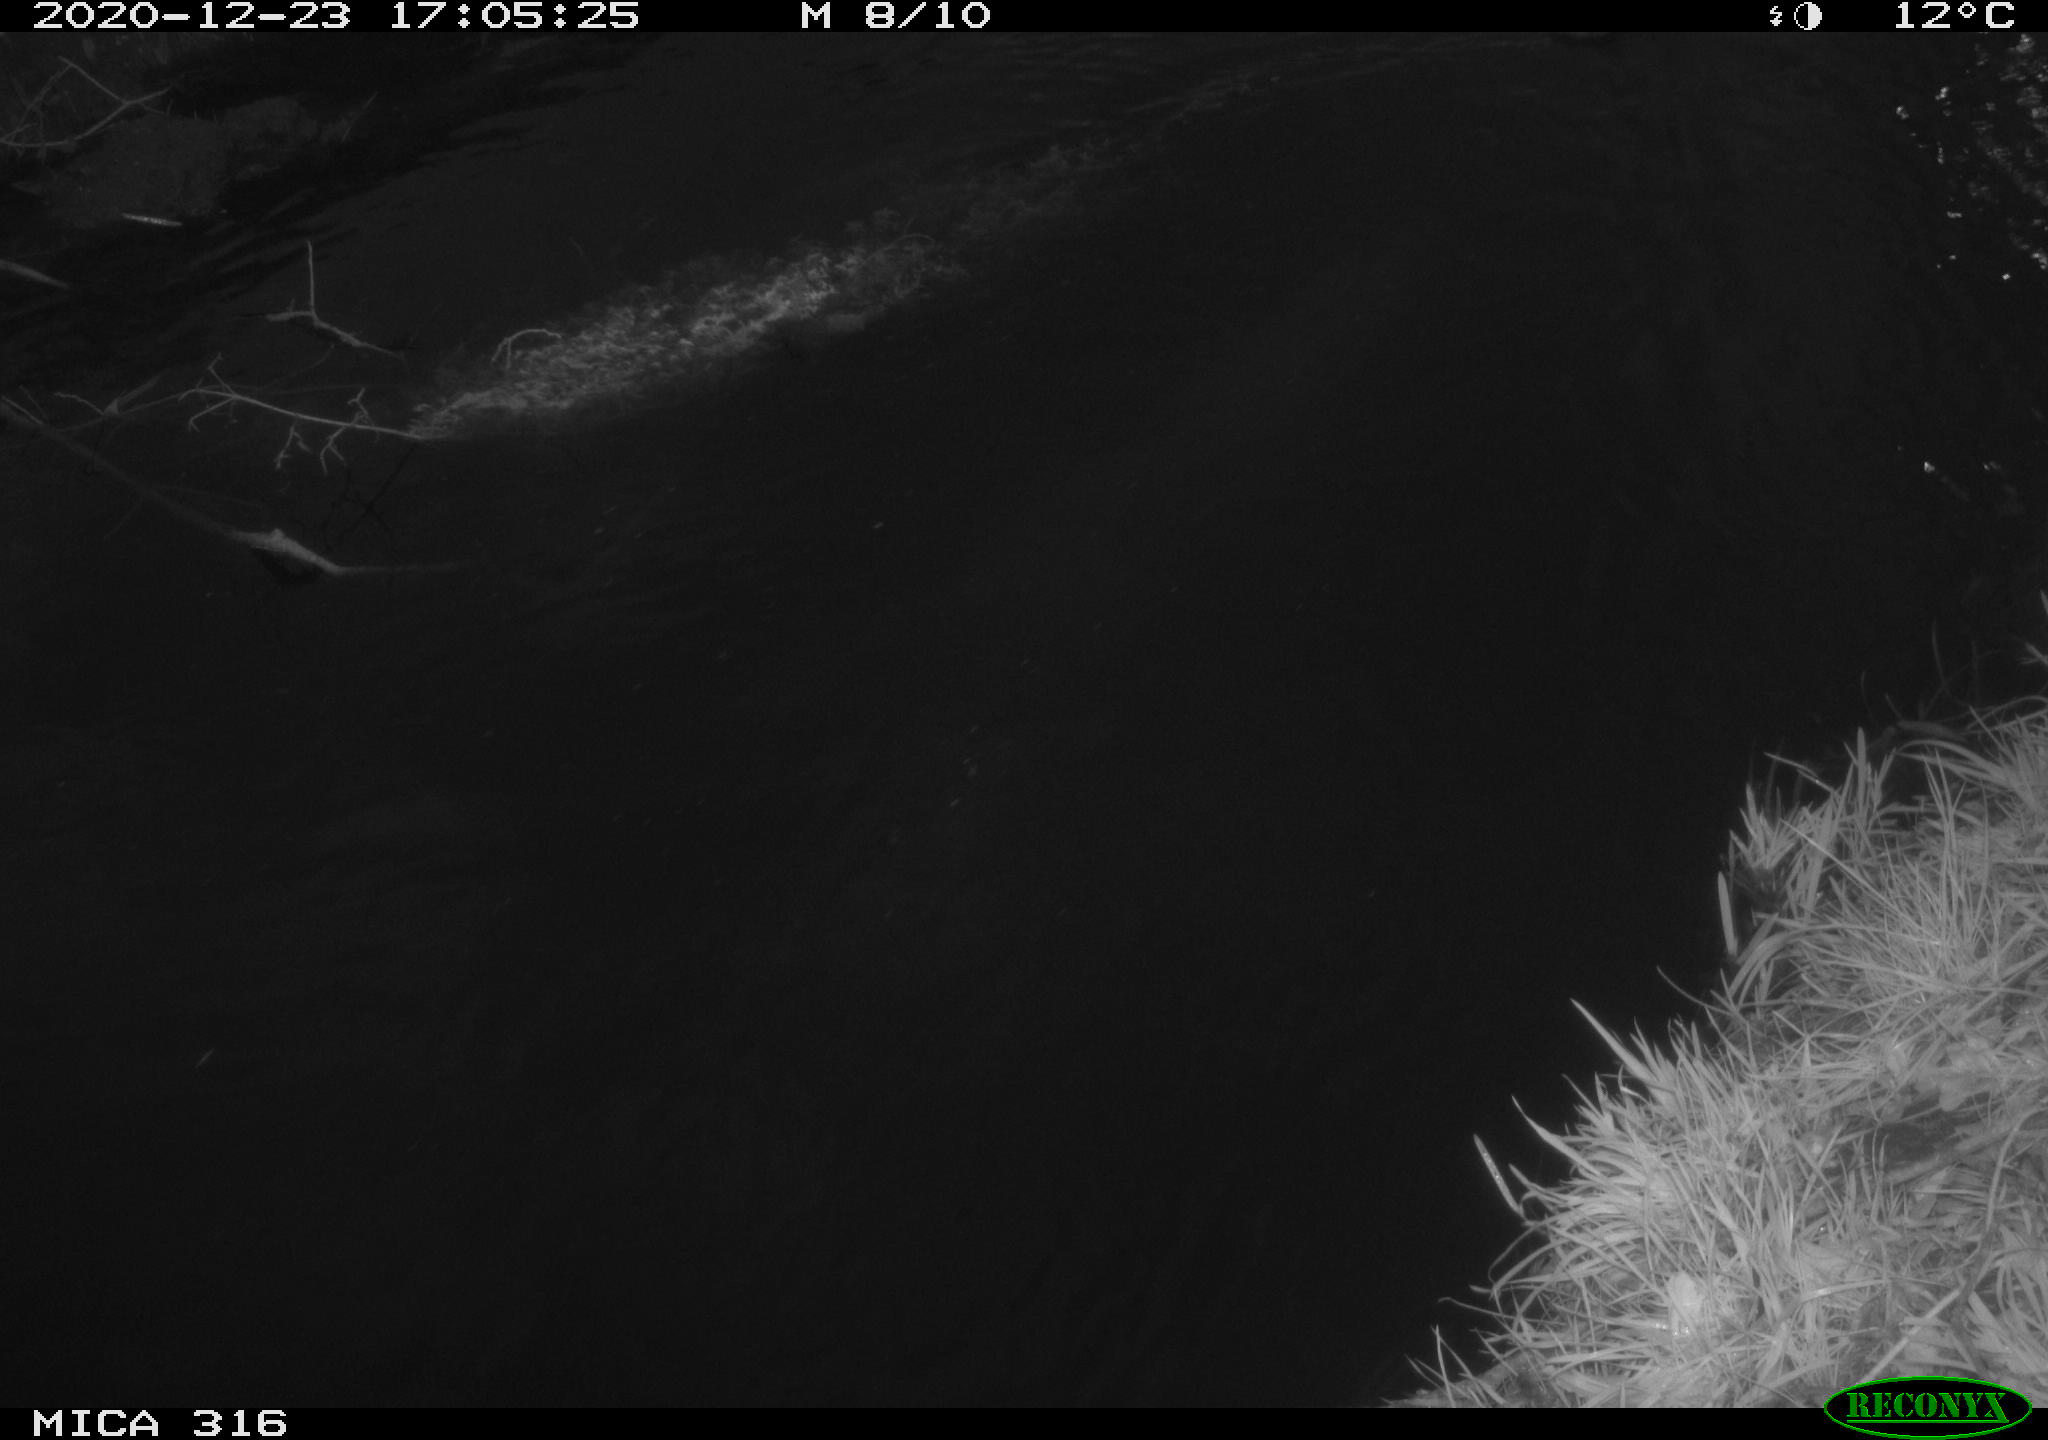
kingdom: Animalia
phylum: Chordata
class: Aves
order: Gruiformes
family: Rallidae
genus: Gallinula
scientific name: Gallinula chloropus
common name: Common moorhen
